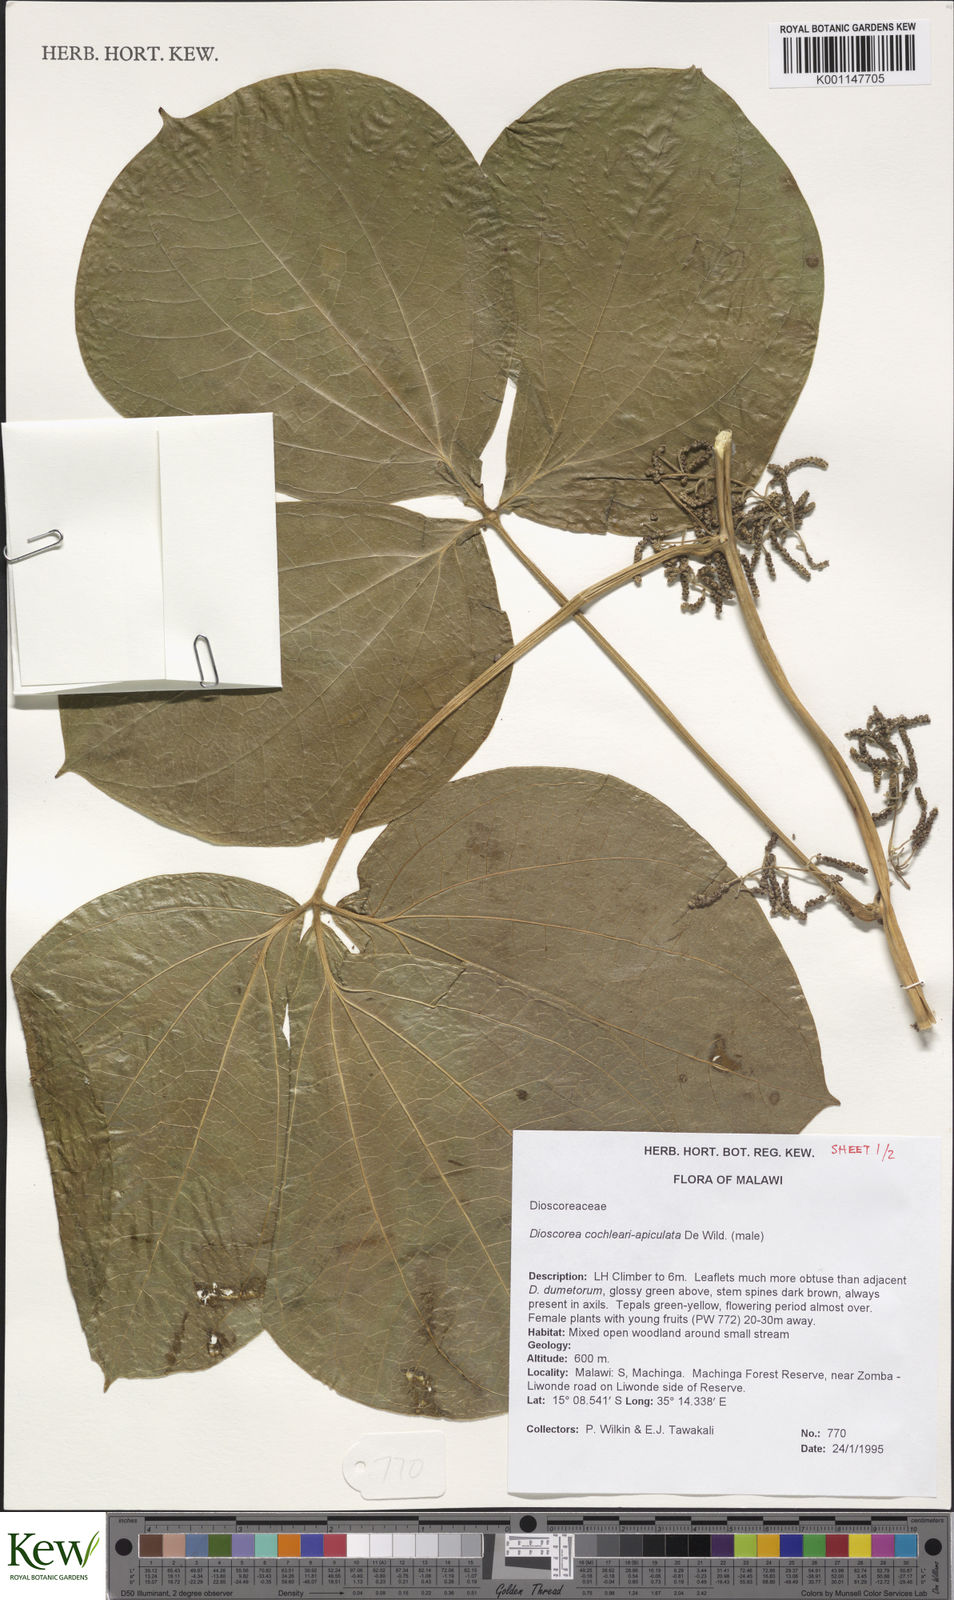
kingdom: Plantae
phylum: Tracheophyta
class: Liliopsida
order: Dioscoreales
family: Dioscoreaceae
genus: Dioscorea
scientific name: Dioscorea cochleariapiculata
